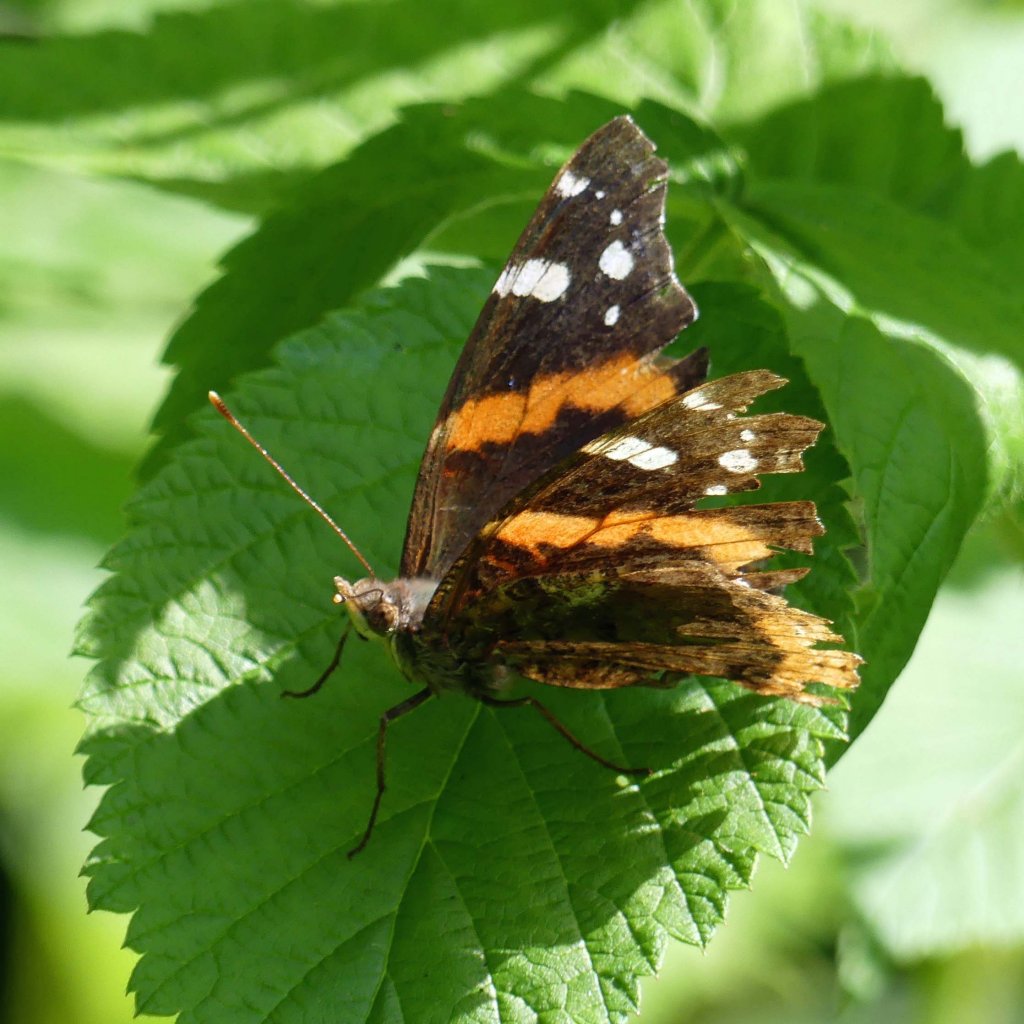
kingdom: Animalia
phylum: Arthropoda
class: Insecta
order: Lepidoptera
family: Nymphalidae
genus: Vanessa
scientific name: Vanessa atalanta
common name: Red Admiral
